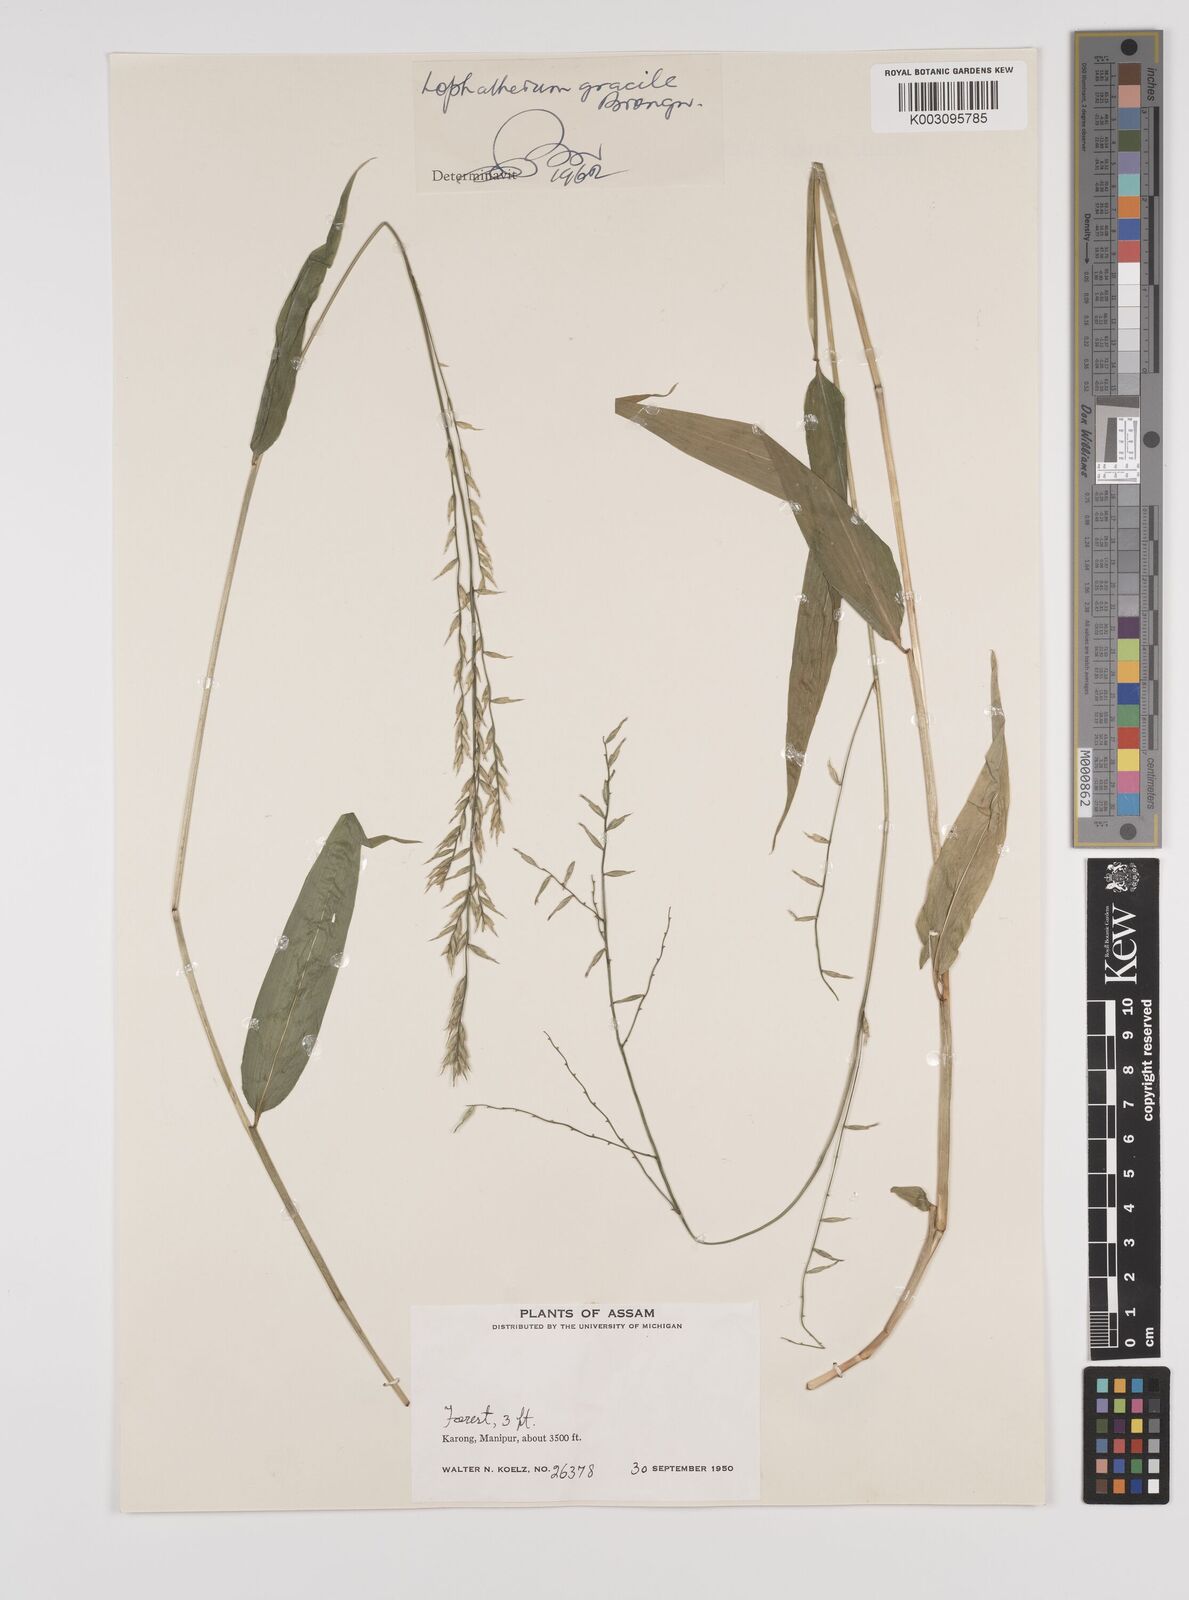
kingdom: Plantae
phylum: Tracheophyta
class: Liliopsida
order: Poales
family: Poaceae
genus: Lophatherum
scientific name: Lophatherum gracile
